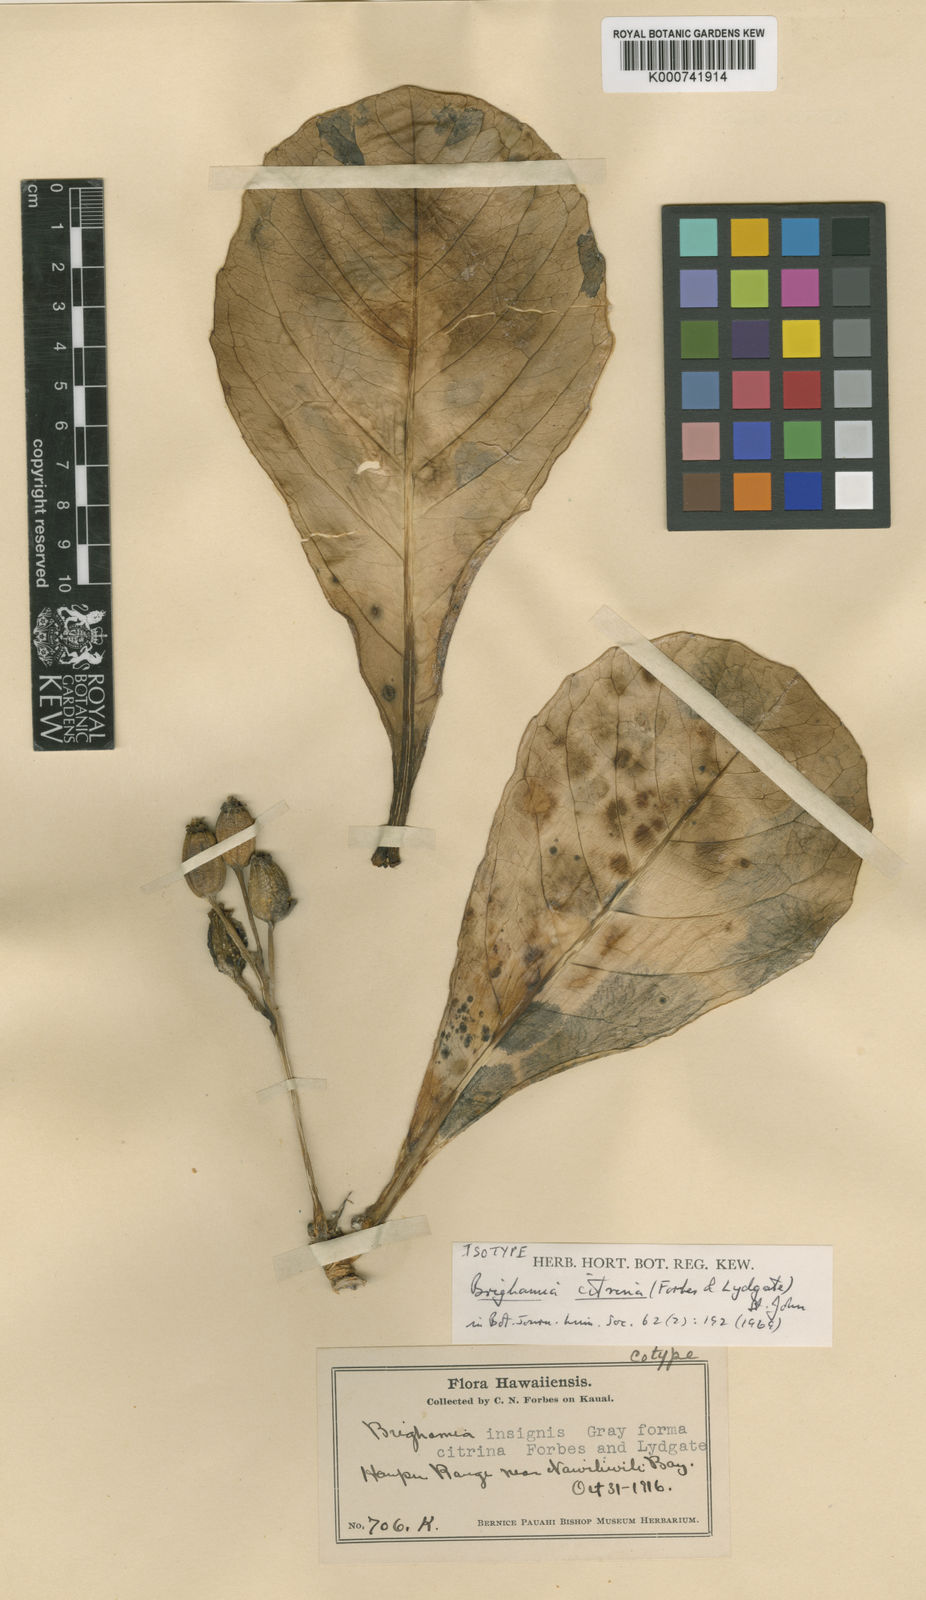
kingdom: Plantae
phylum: Tracheophyta
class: Magnoliopsida
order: Asterales
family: Campanulaceae
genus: Brighamia
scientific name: Brighamia insignis
